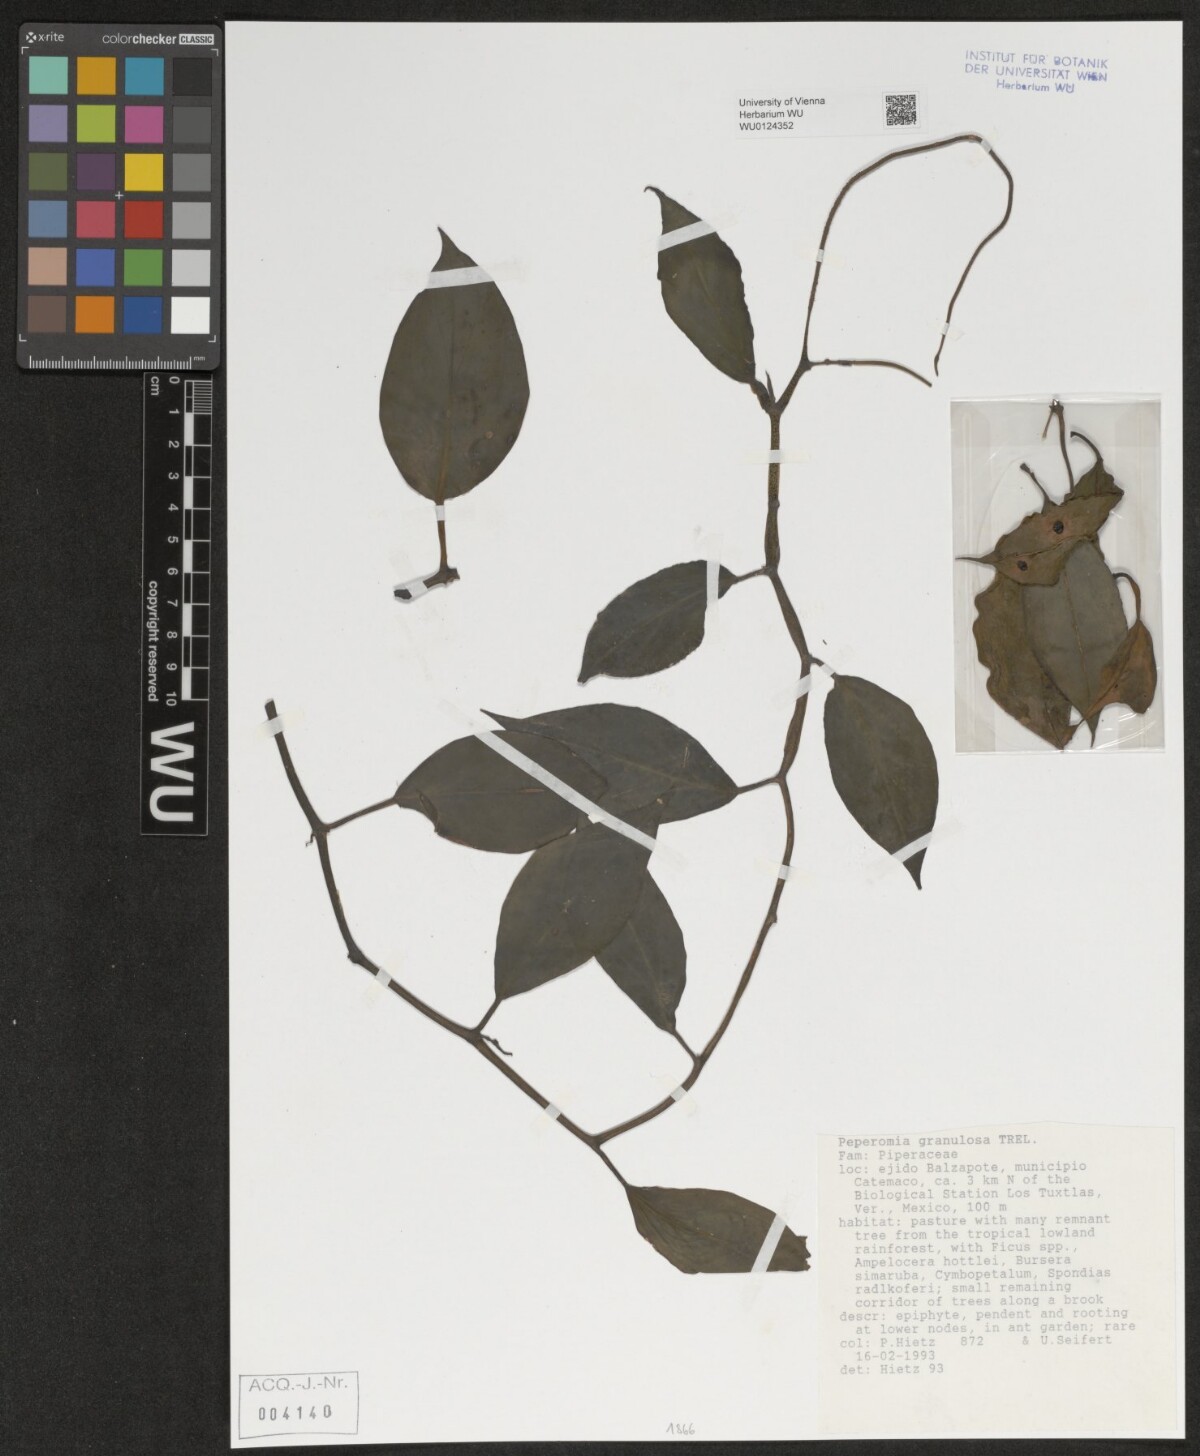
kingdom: Plantae
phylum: Tracheophyta
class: Magnoliopsida
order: Piperales
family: Piperaceae
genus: Peperomia
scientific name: Peperomia granulosa
